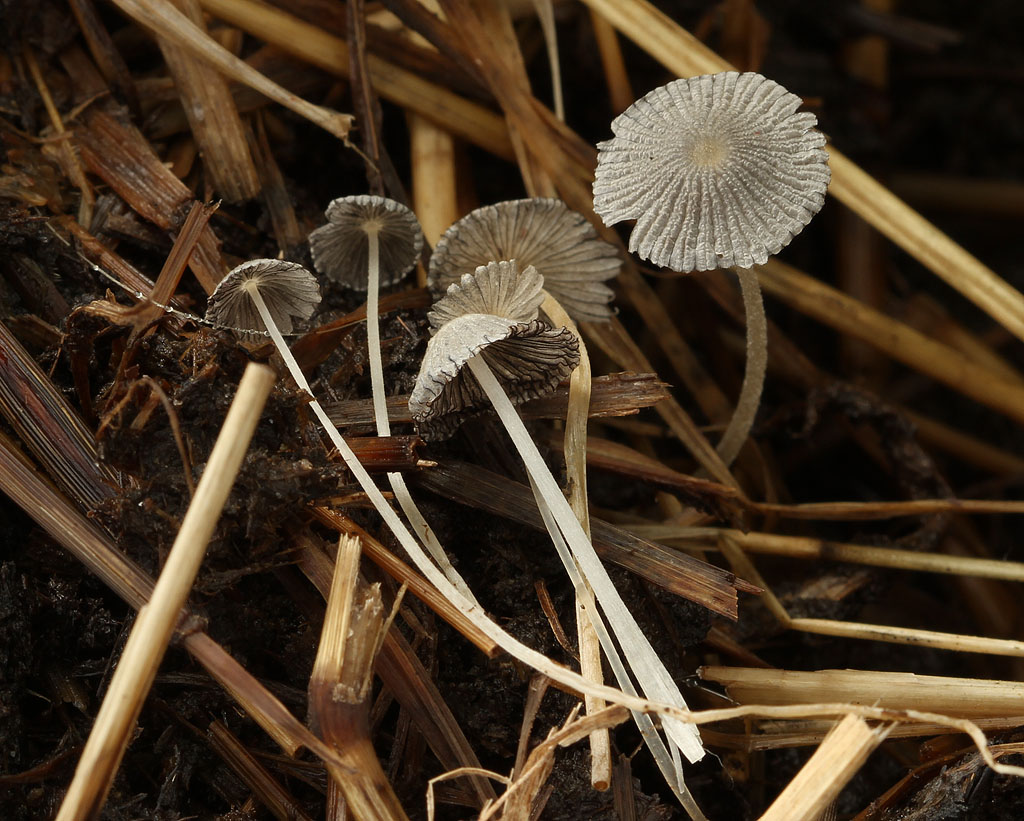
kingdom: Fungi
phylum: Basidiomycota
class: Agaricomycetes
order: Agaricales
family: Psathyrellaceae
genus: Tulosesus
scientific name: Tulosesus bisporus
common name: tosporet blækhat
